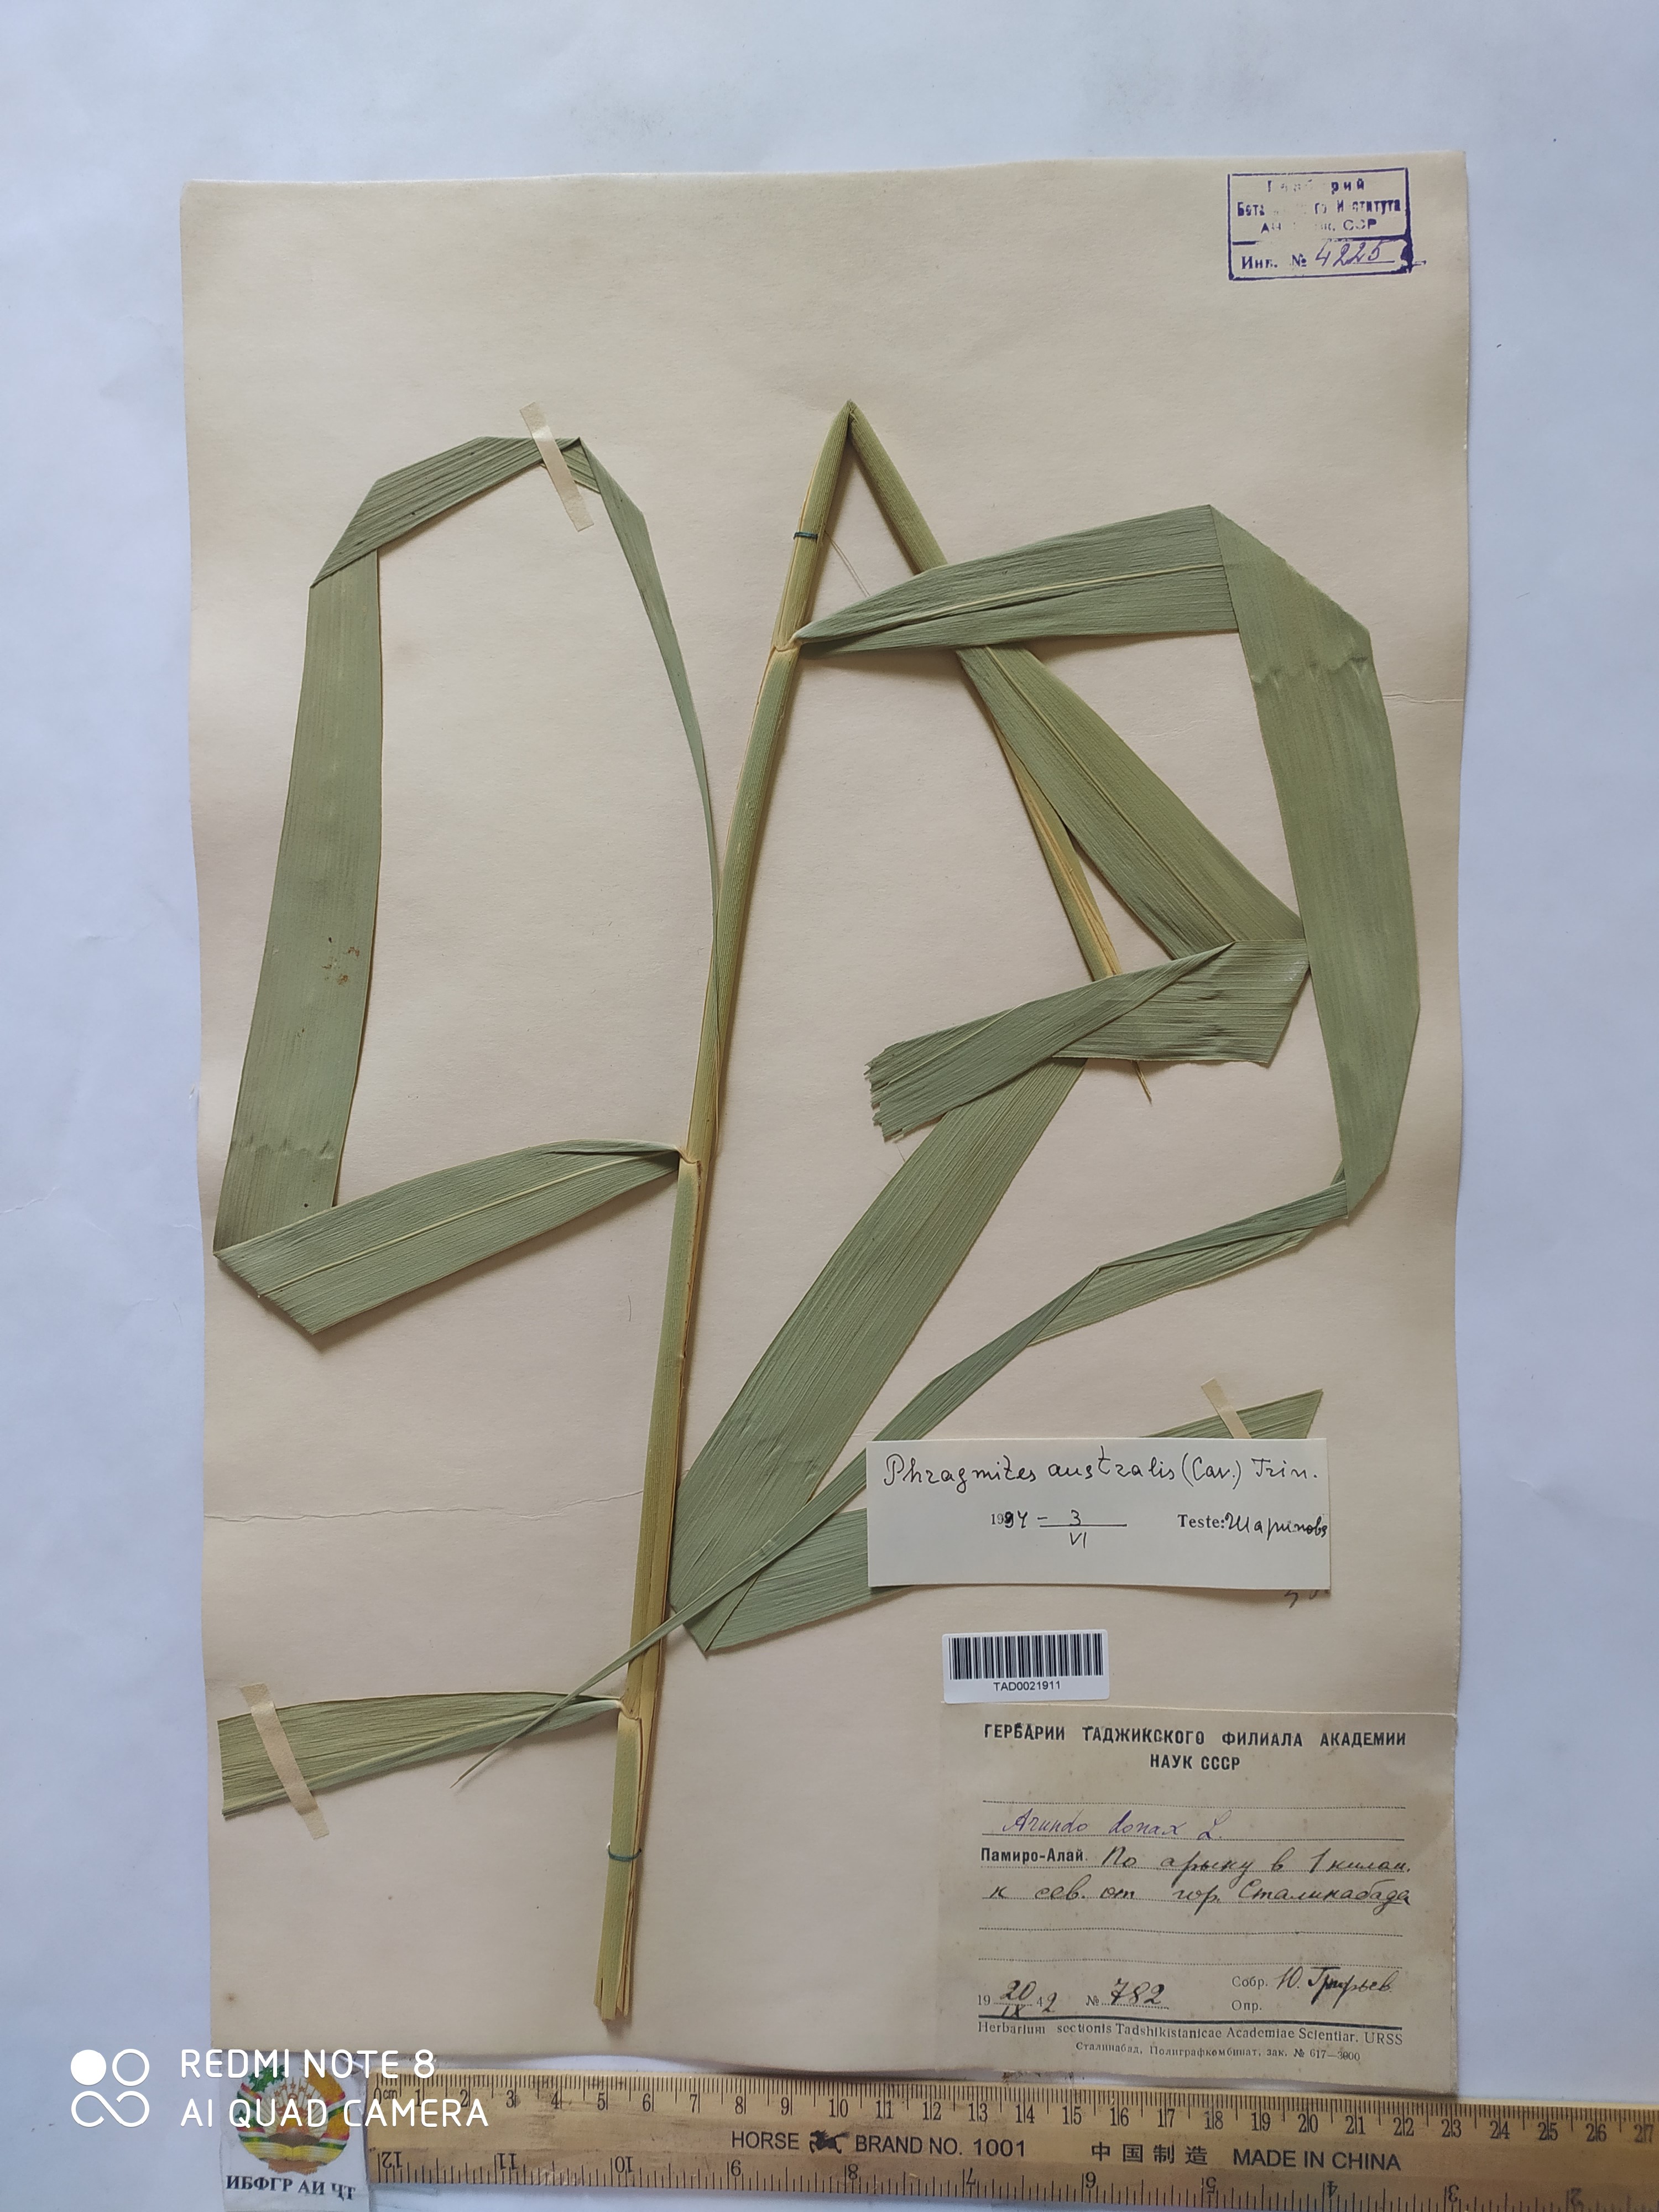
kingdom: Plantae
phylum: Tracheophyta
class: Liliopsida
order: Poales
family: Poaceae
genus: Phragmites
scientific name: Phragmites australis
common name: Common reed
